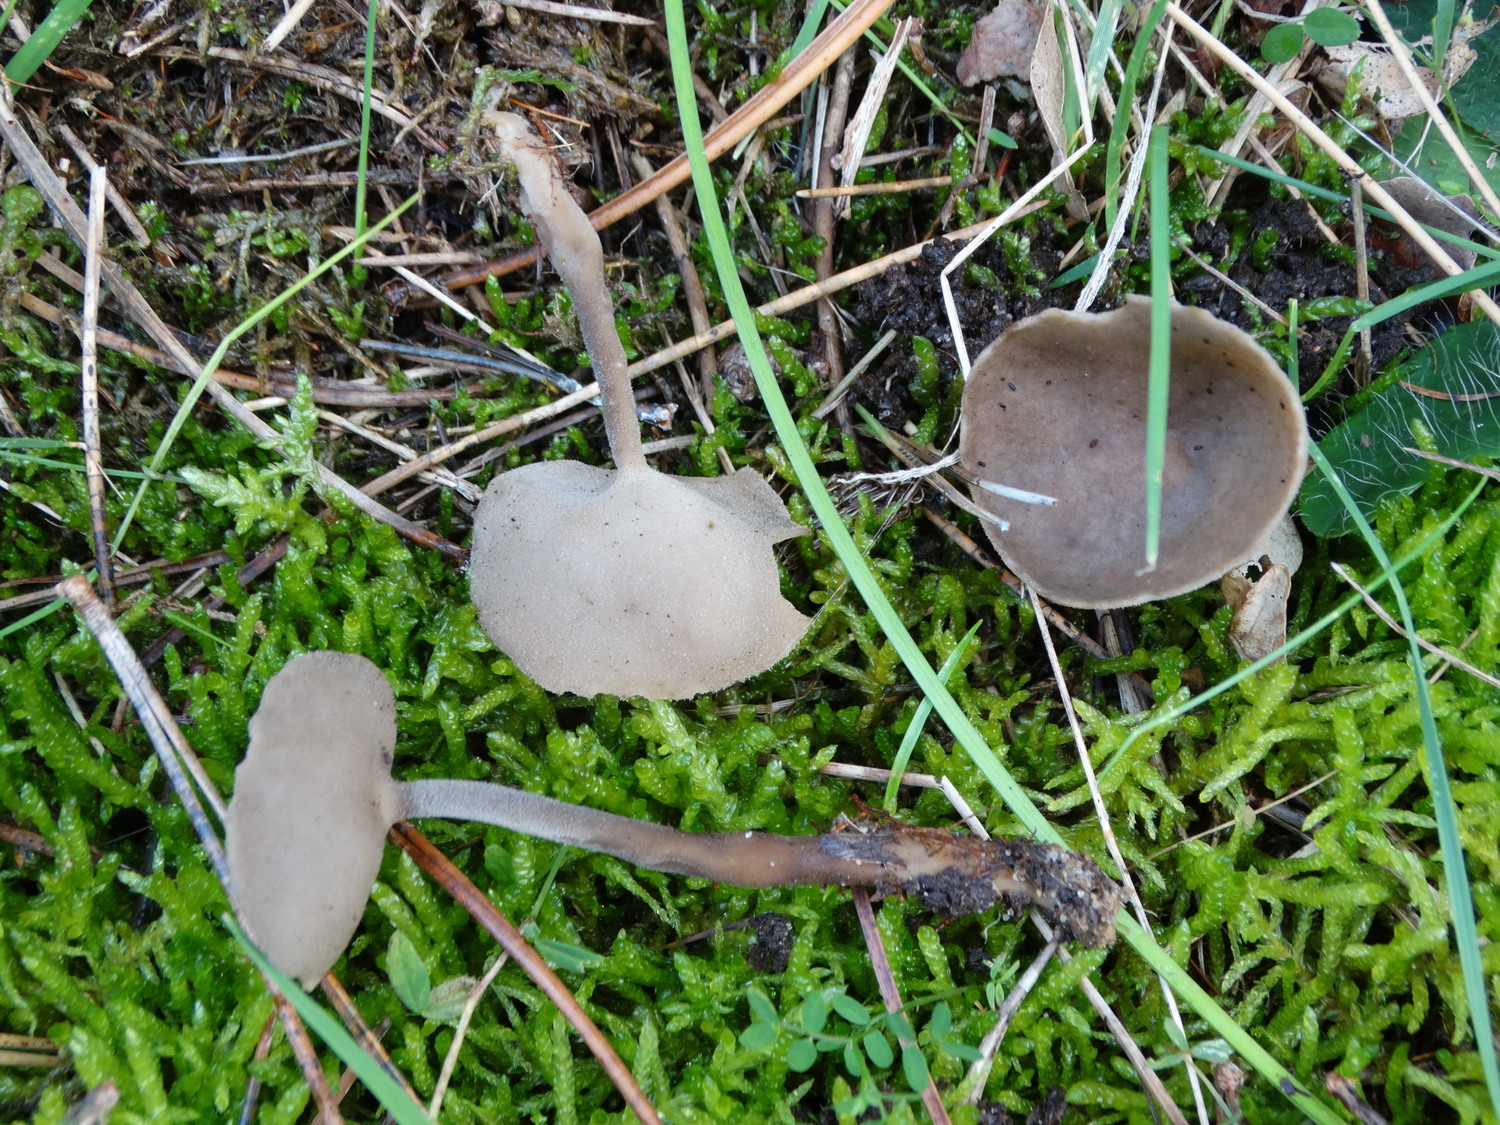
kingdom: Fungi
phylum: Ascomycota
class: Pezizomycetes
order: Pezizales
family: Helvellaceae
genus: Helvella
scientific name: Helvella
